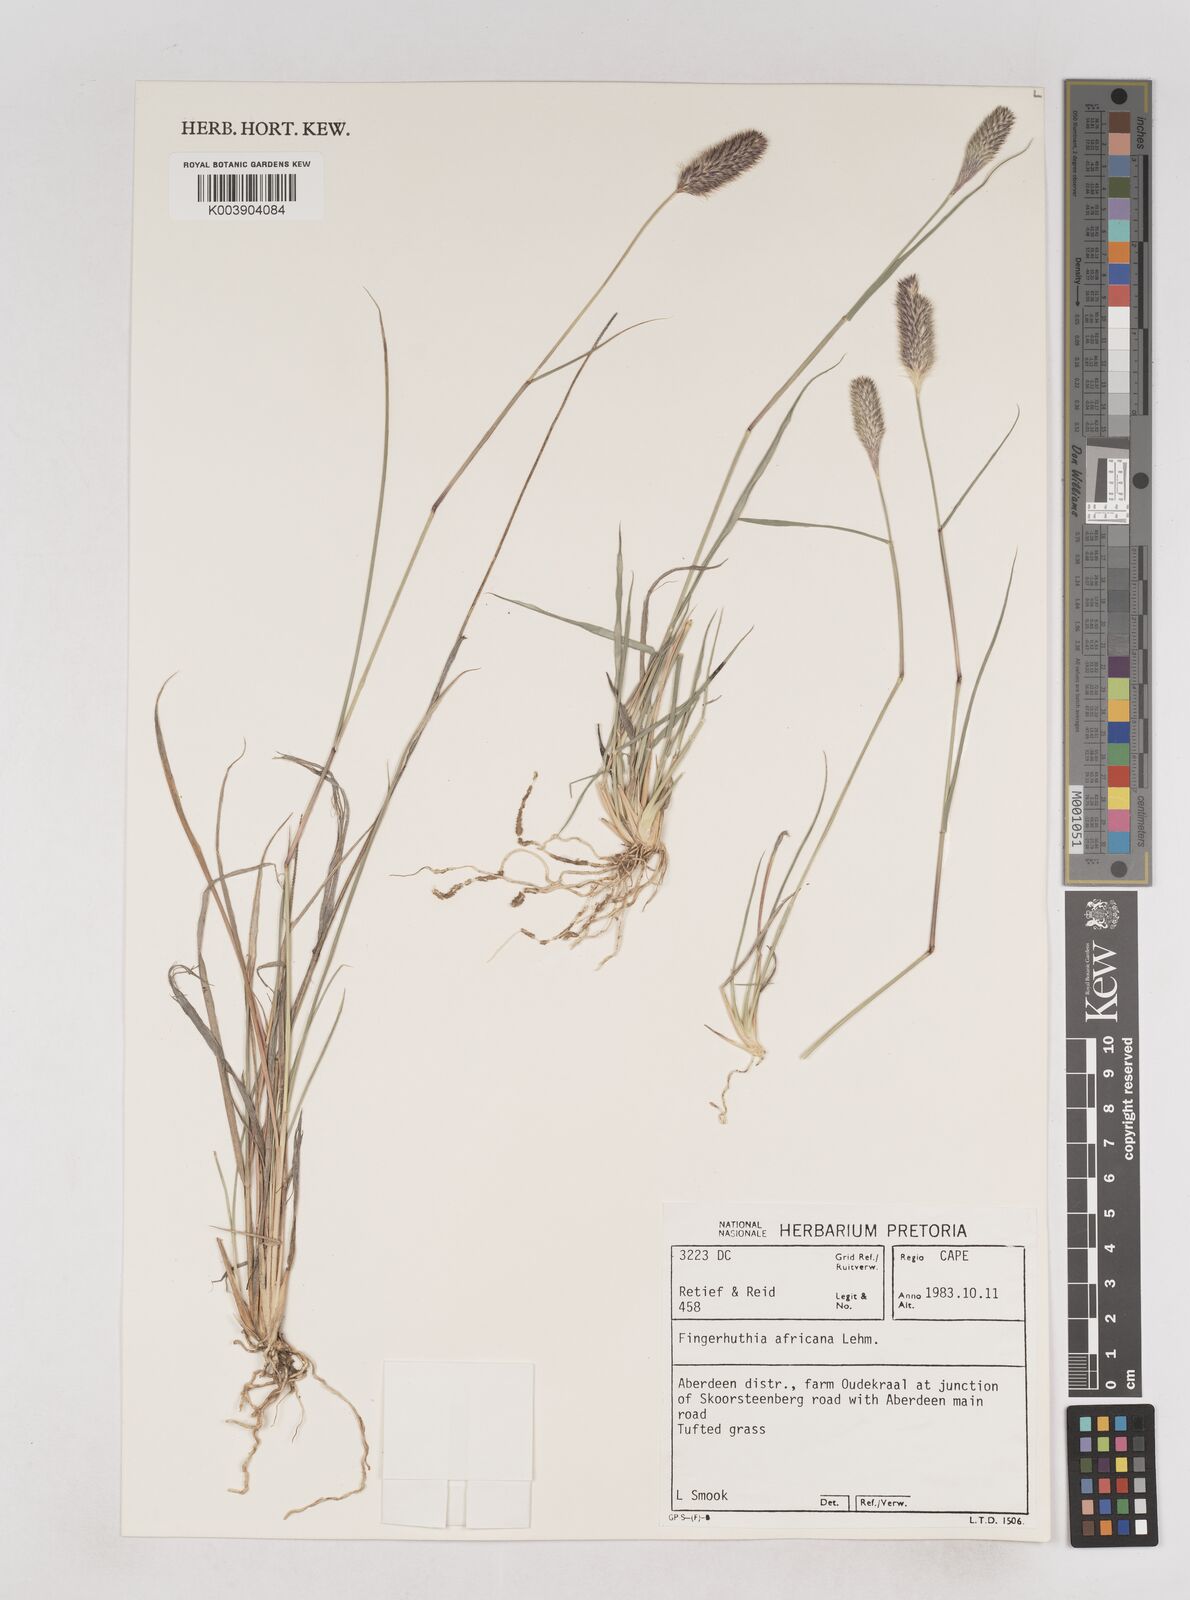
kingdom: Plantae
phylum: Tracheophyta
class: Liliopsida
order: Poales
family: Poaceae
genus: Fingerhuthia
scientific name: Fingerhuthia africana
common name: Zulu fescue
